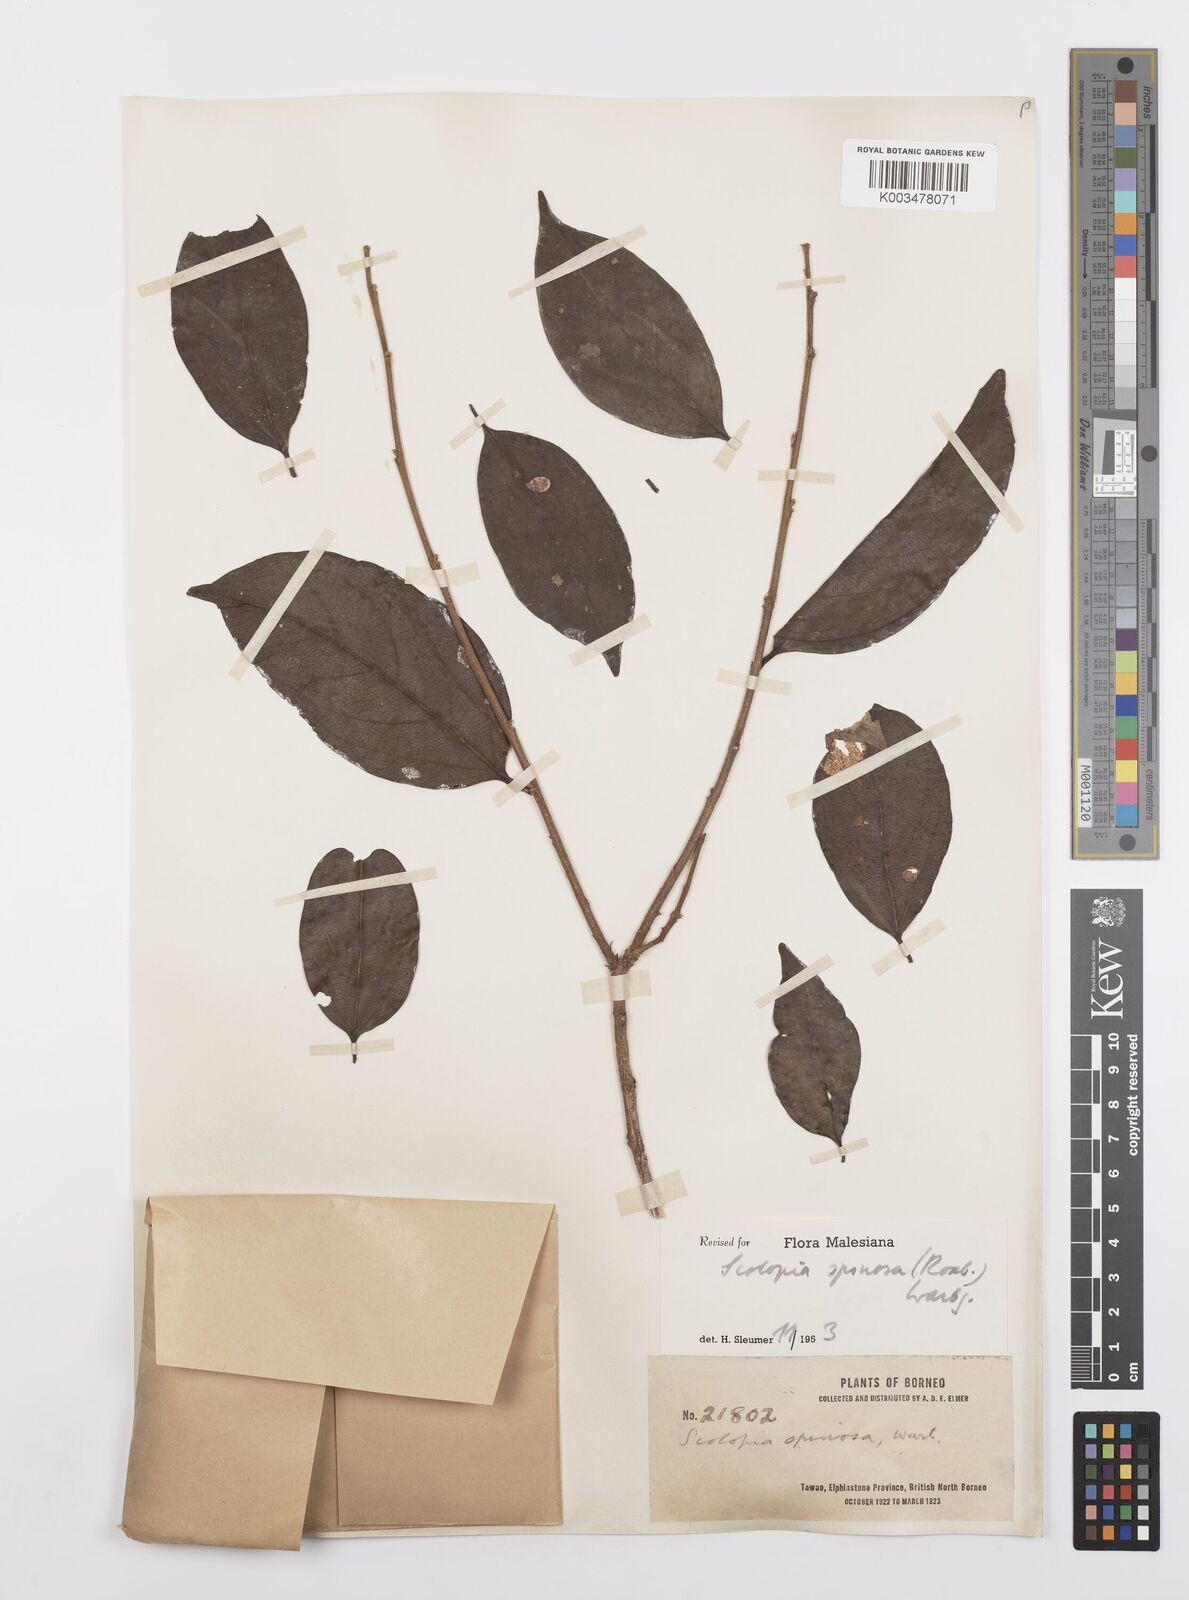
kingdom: Plantae
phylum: Tracheophyta
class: Magnoliopsida
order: Malpighiales
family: Salicaceae
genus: Scolopia
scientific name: Scolopia spinosa
